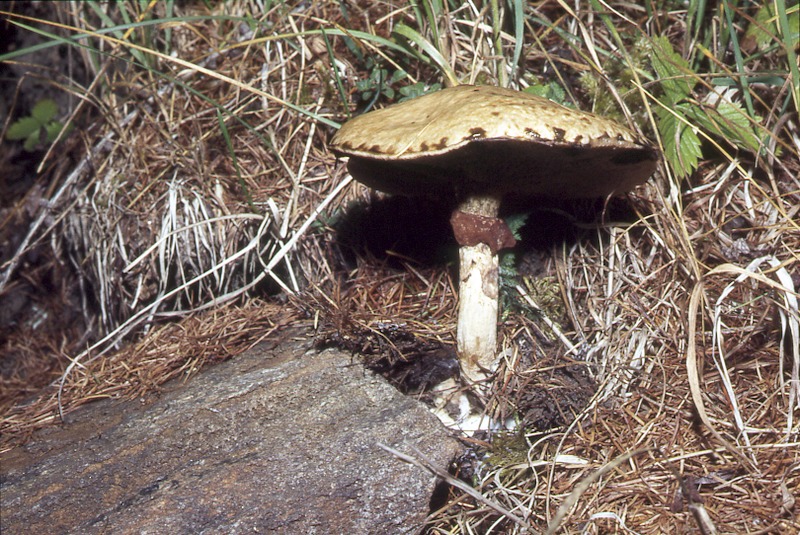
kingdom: Fungi
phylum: Basidiomycota
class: Agaricomycetes
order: Boletales
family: Suillaceae
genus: Suillus
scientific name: Suillus viscidus
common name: Sticky bolete
